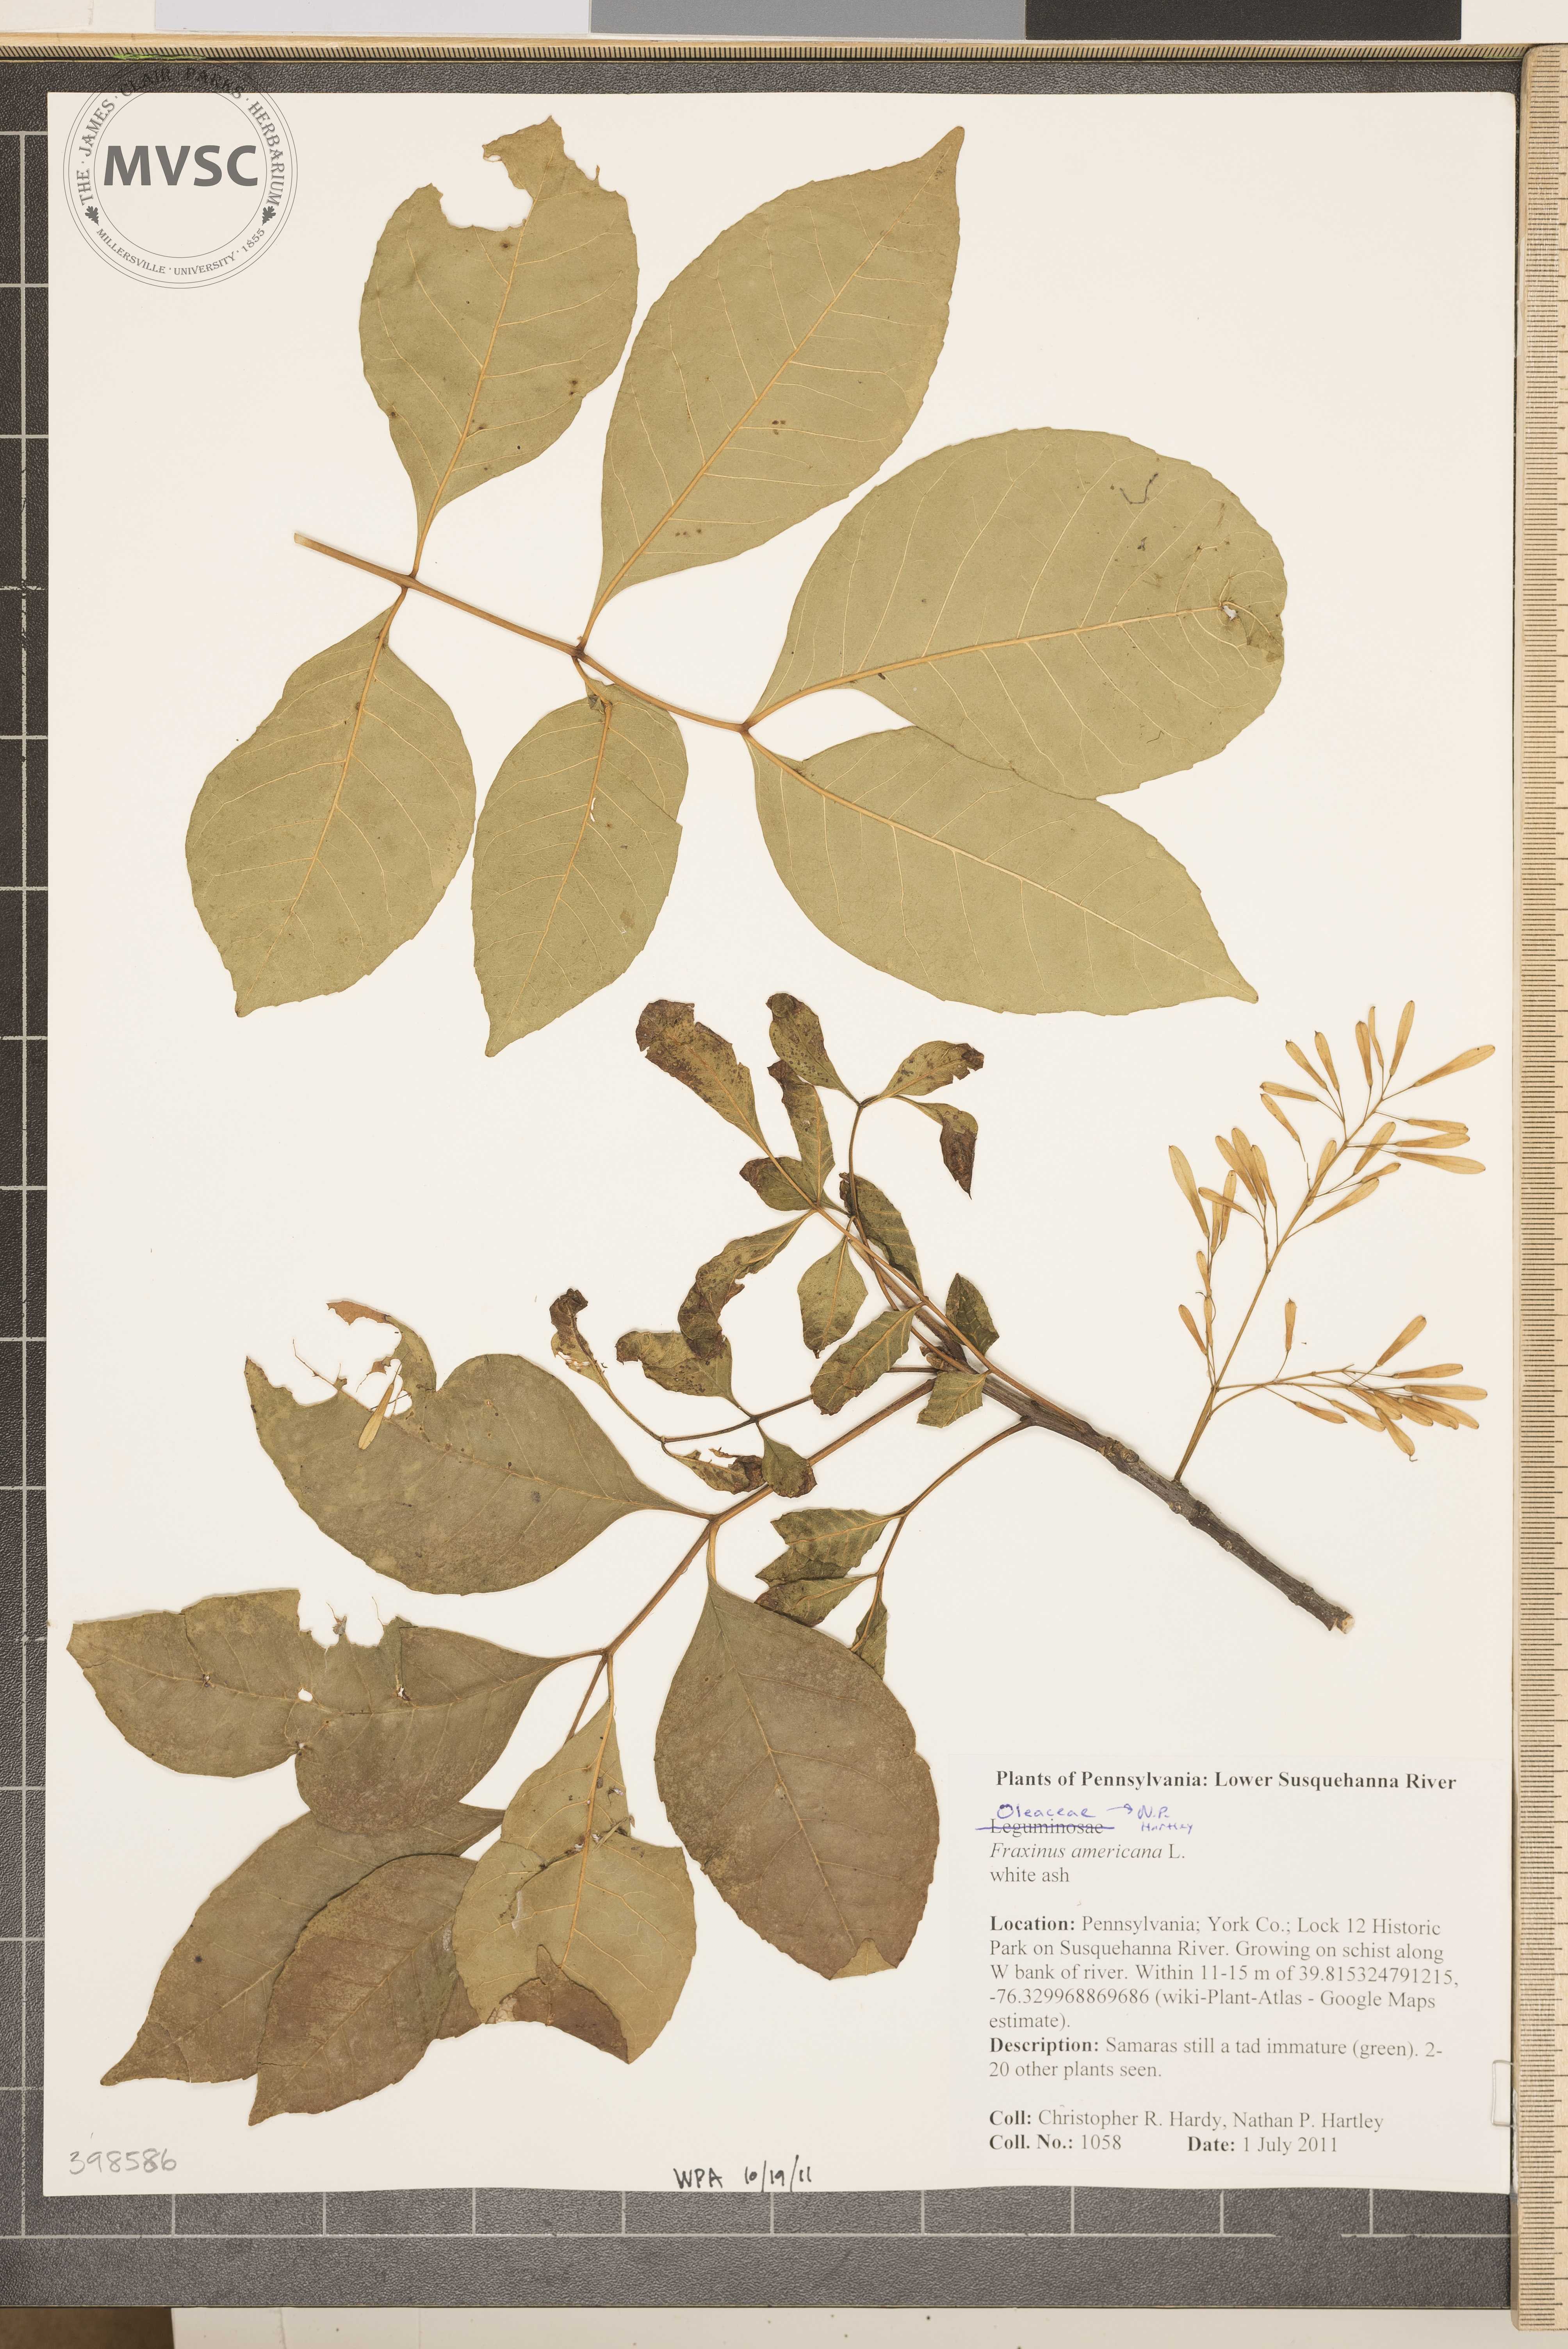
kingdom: Plantae
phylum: Tracheophyta
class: Magnoliopsida
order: Lamiales
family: Oleaceae
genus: Fraxinus
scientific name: Fraxinus americana
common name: White ash
